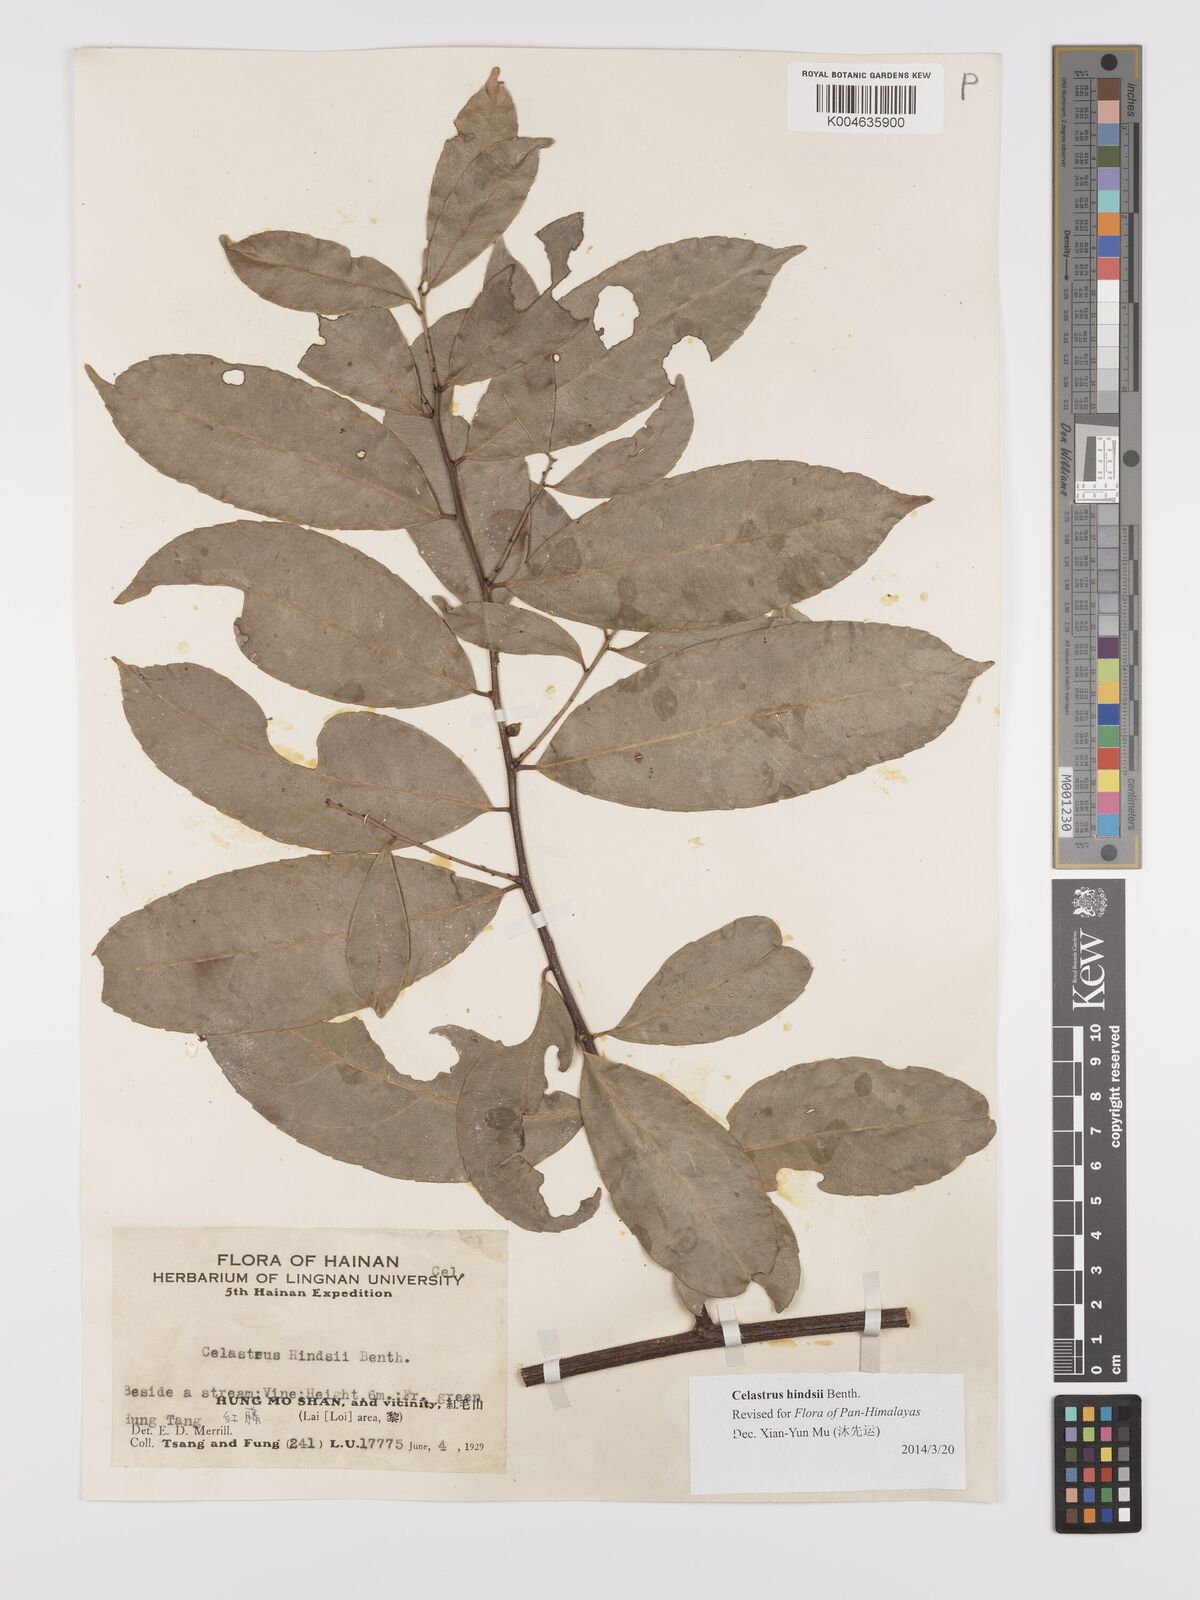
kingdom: Plantae
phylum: Tracheophyta
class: Magnoliopsida
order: Celastrales
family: Celastraceae
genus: Celastrus
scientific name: Celastrus hindsii
